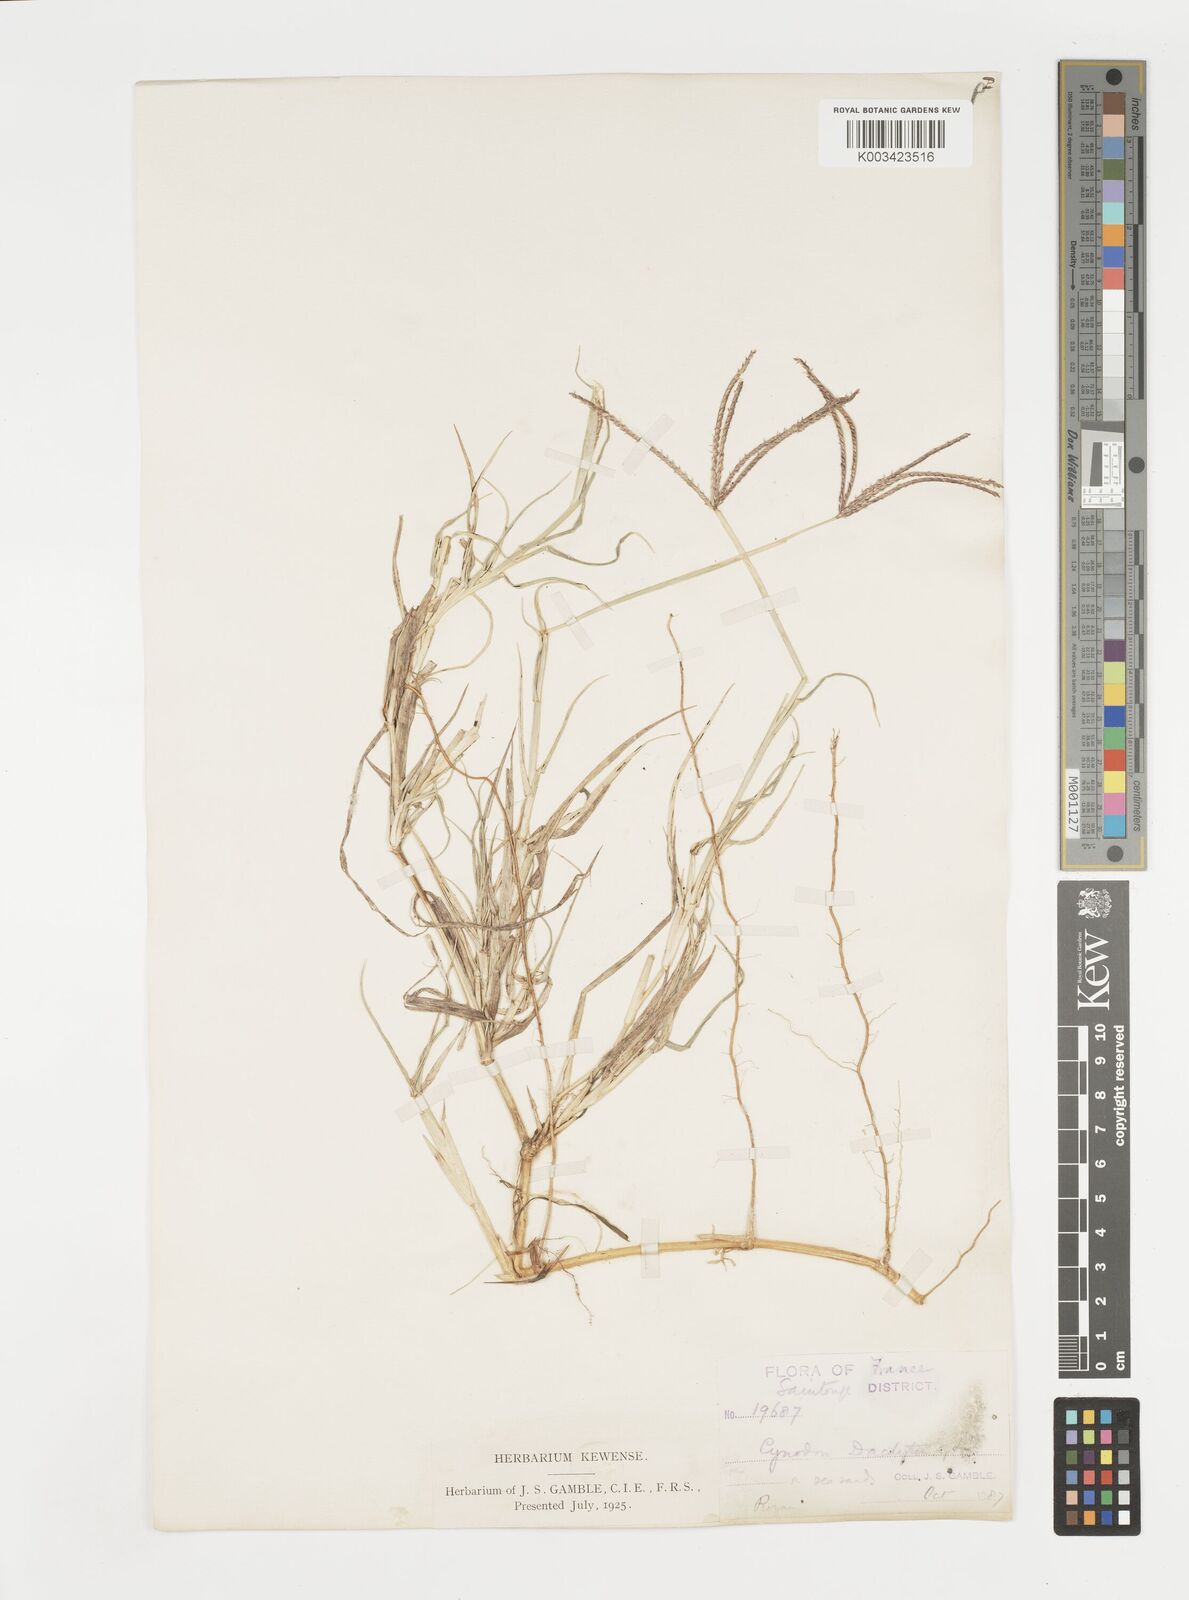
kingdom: Plantae
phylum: Tracheophyta
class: Liliopsida
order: Poales
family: Poaceae
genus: Cynodon
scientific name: Cynodon dactylon
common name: Bermuda grass
